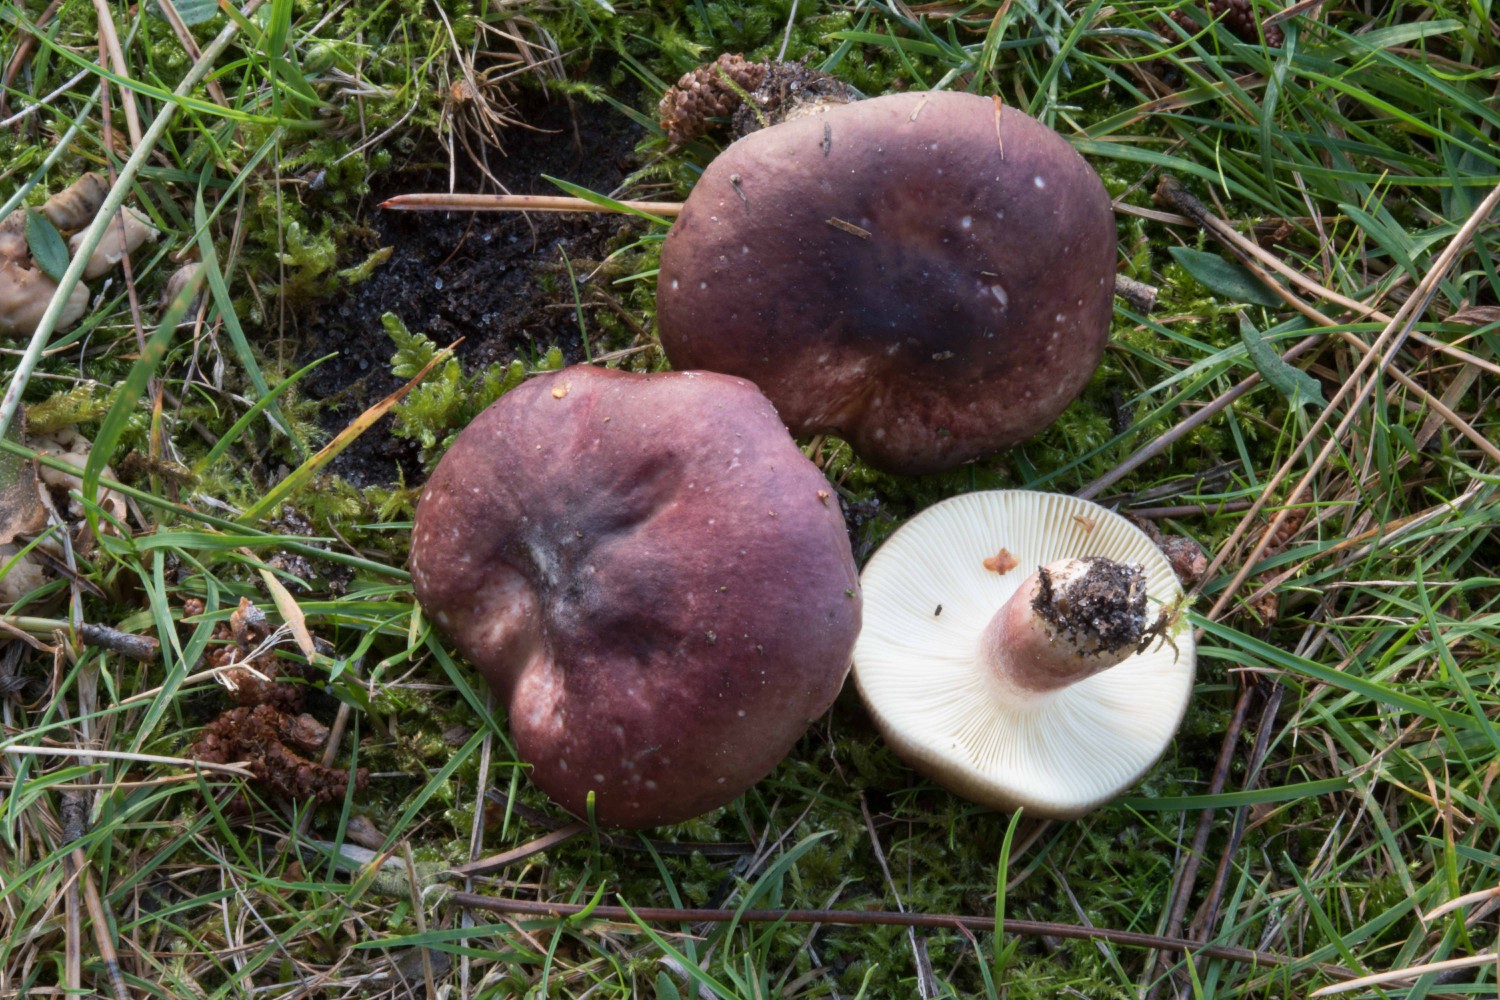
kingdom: Fungi
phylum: Basidiomycota
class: Agaricomycetes
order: Russulales
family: Russulaceae
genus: Russula
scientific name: Russula sardonia
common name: citronbladet skørhat
